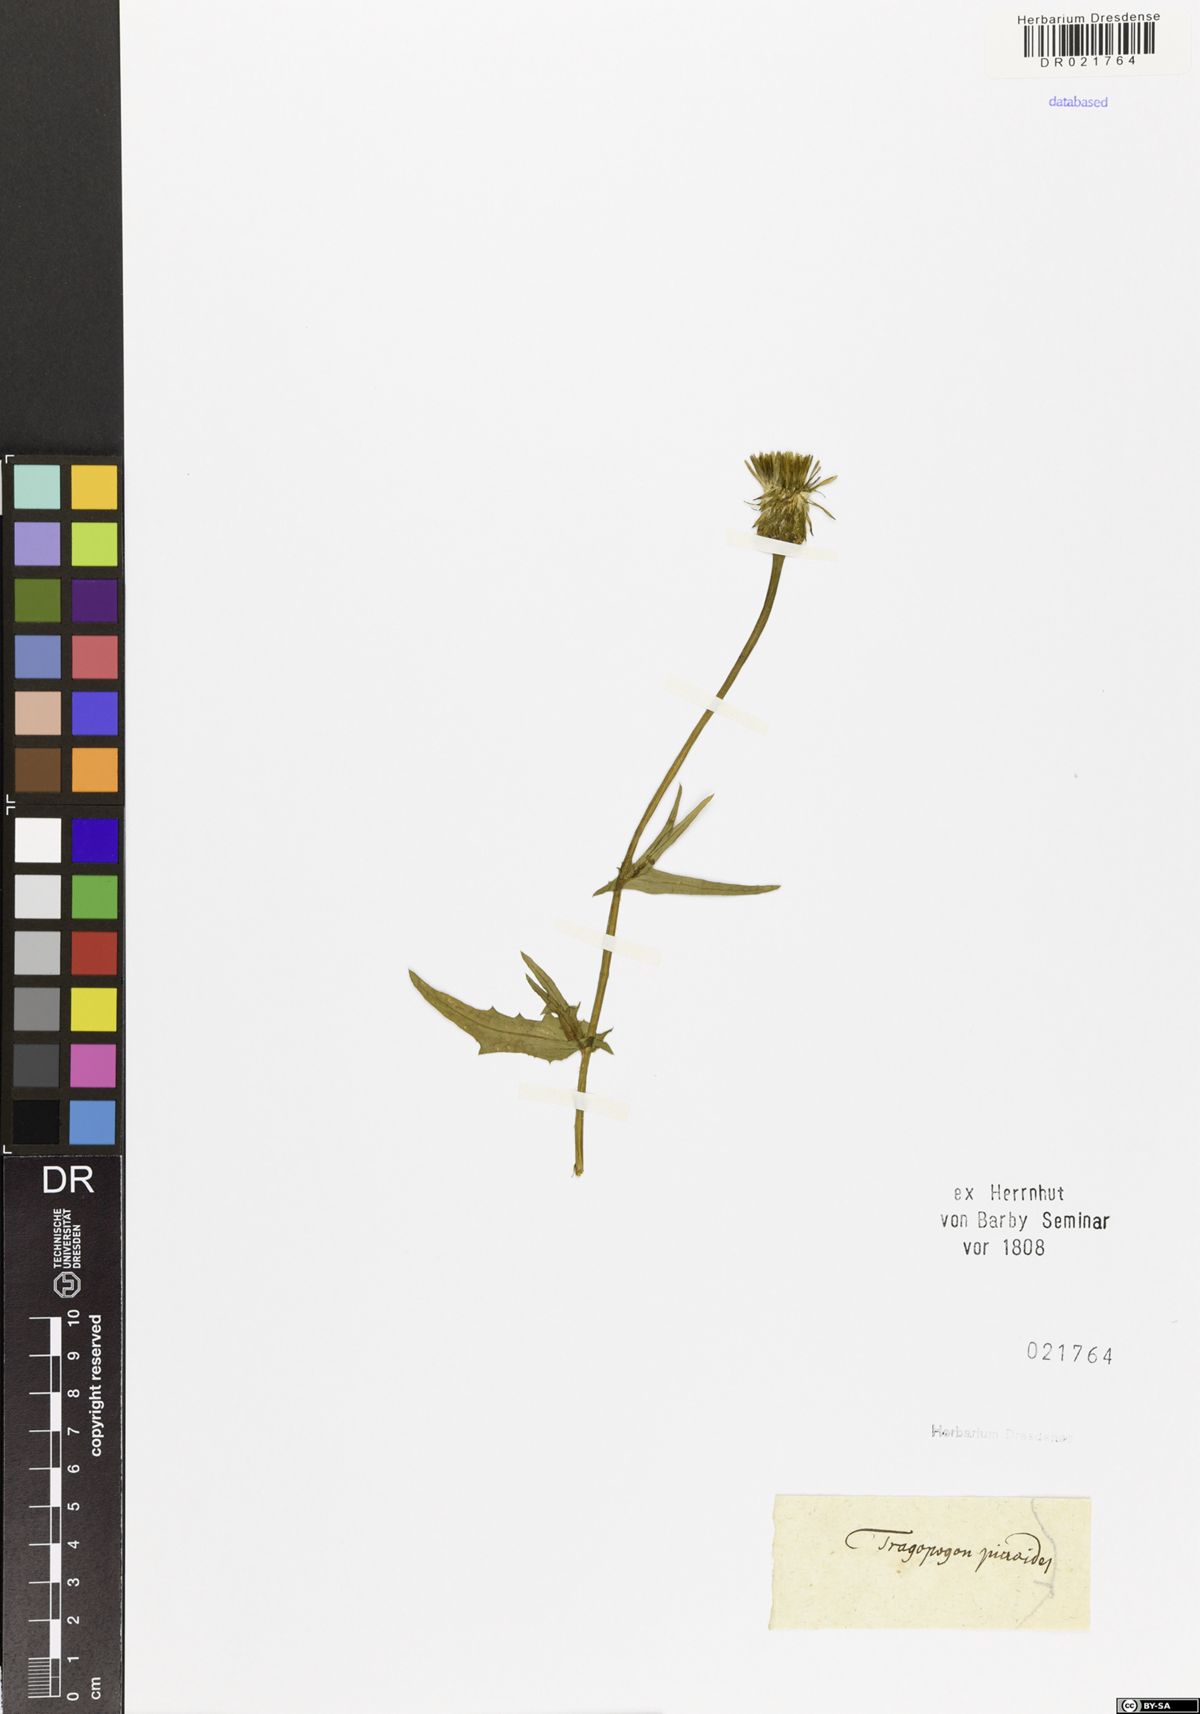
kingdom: Plantae
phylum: Tracheophyta
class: Magnoliopsida
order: Asterales
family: Asteraceae
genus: Urospermum
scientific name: Urospermum picroides
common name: False hawkbit
